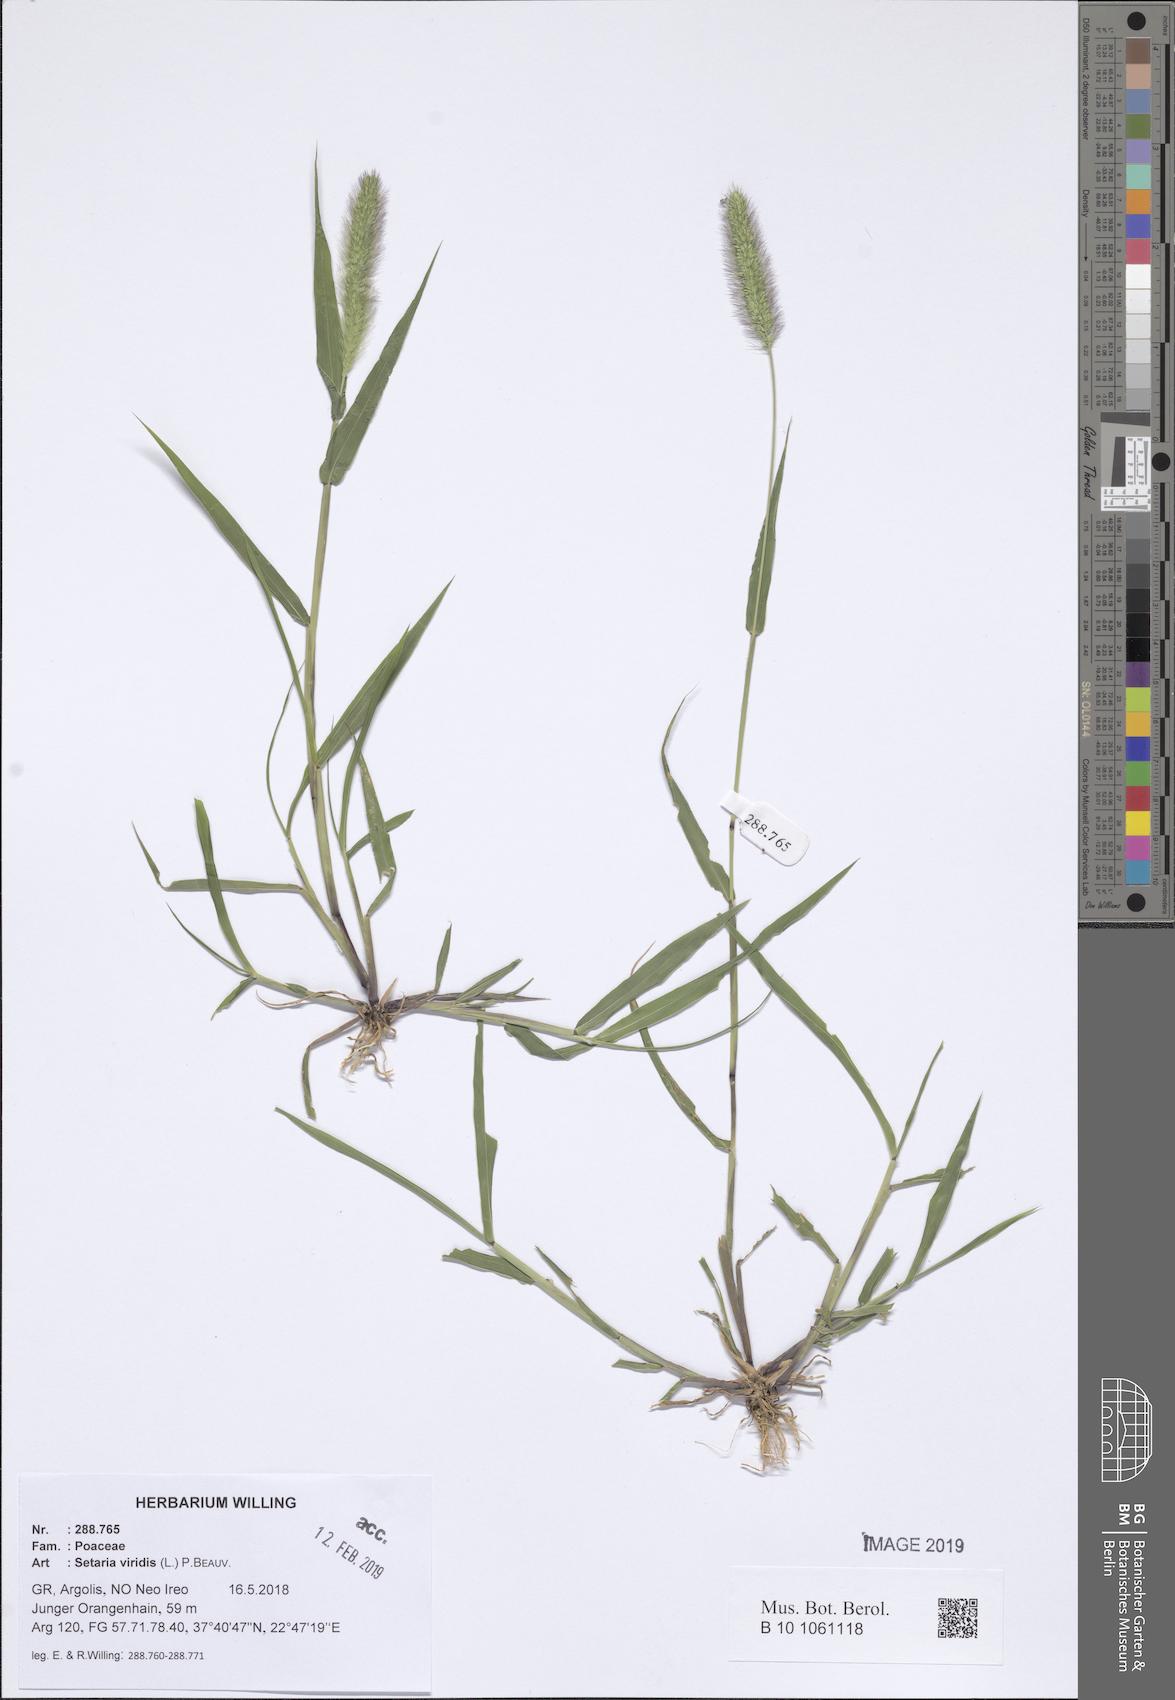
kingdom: Plantae
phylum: Tracheophyta
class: Liliopsida
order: Poales
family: Poaceae
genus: Setaria
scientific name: Setaria viridis
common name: Green bristlegrass
